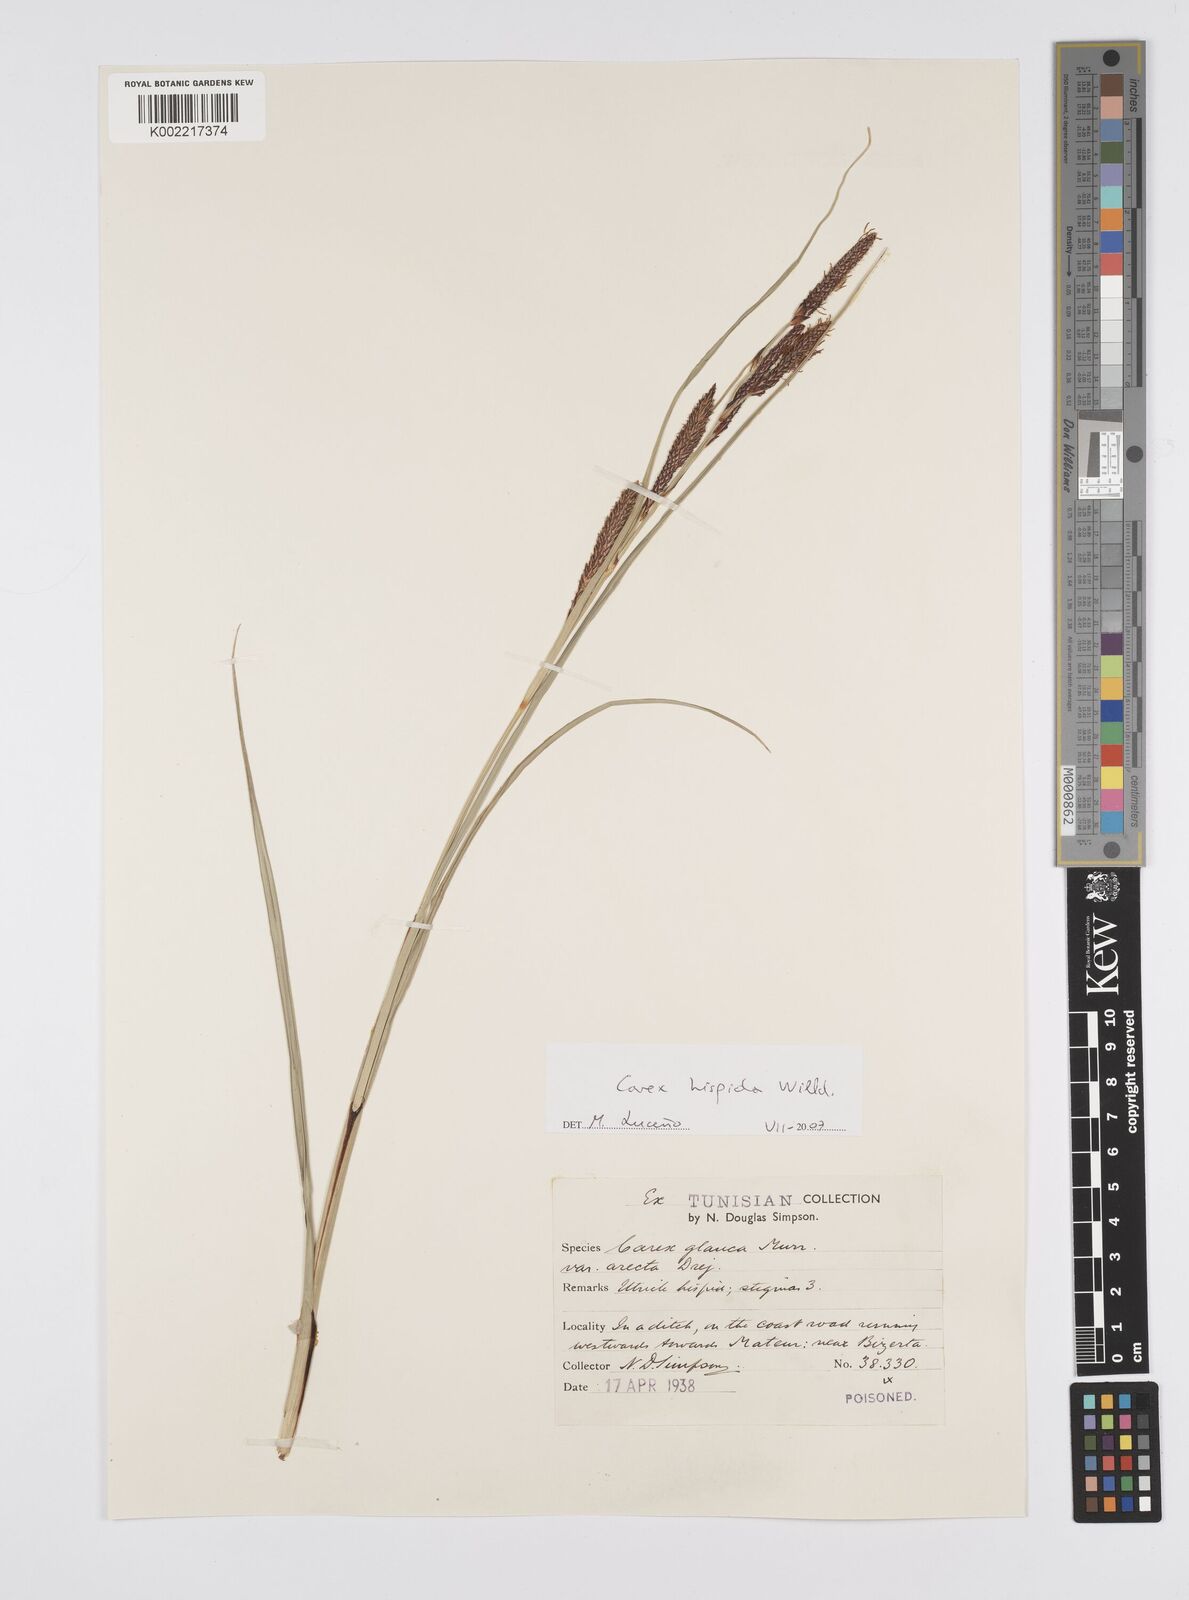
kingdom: Plantae
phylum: Tracheophyta
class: Liliopsida
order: Poales
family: Cyperaceae
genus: Carex
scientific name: Carex hispida
